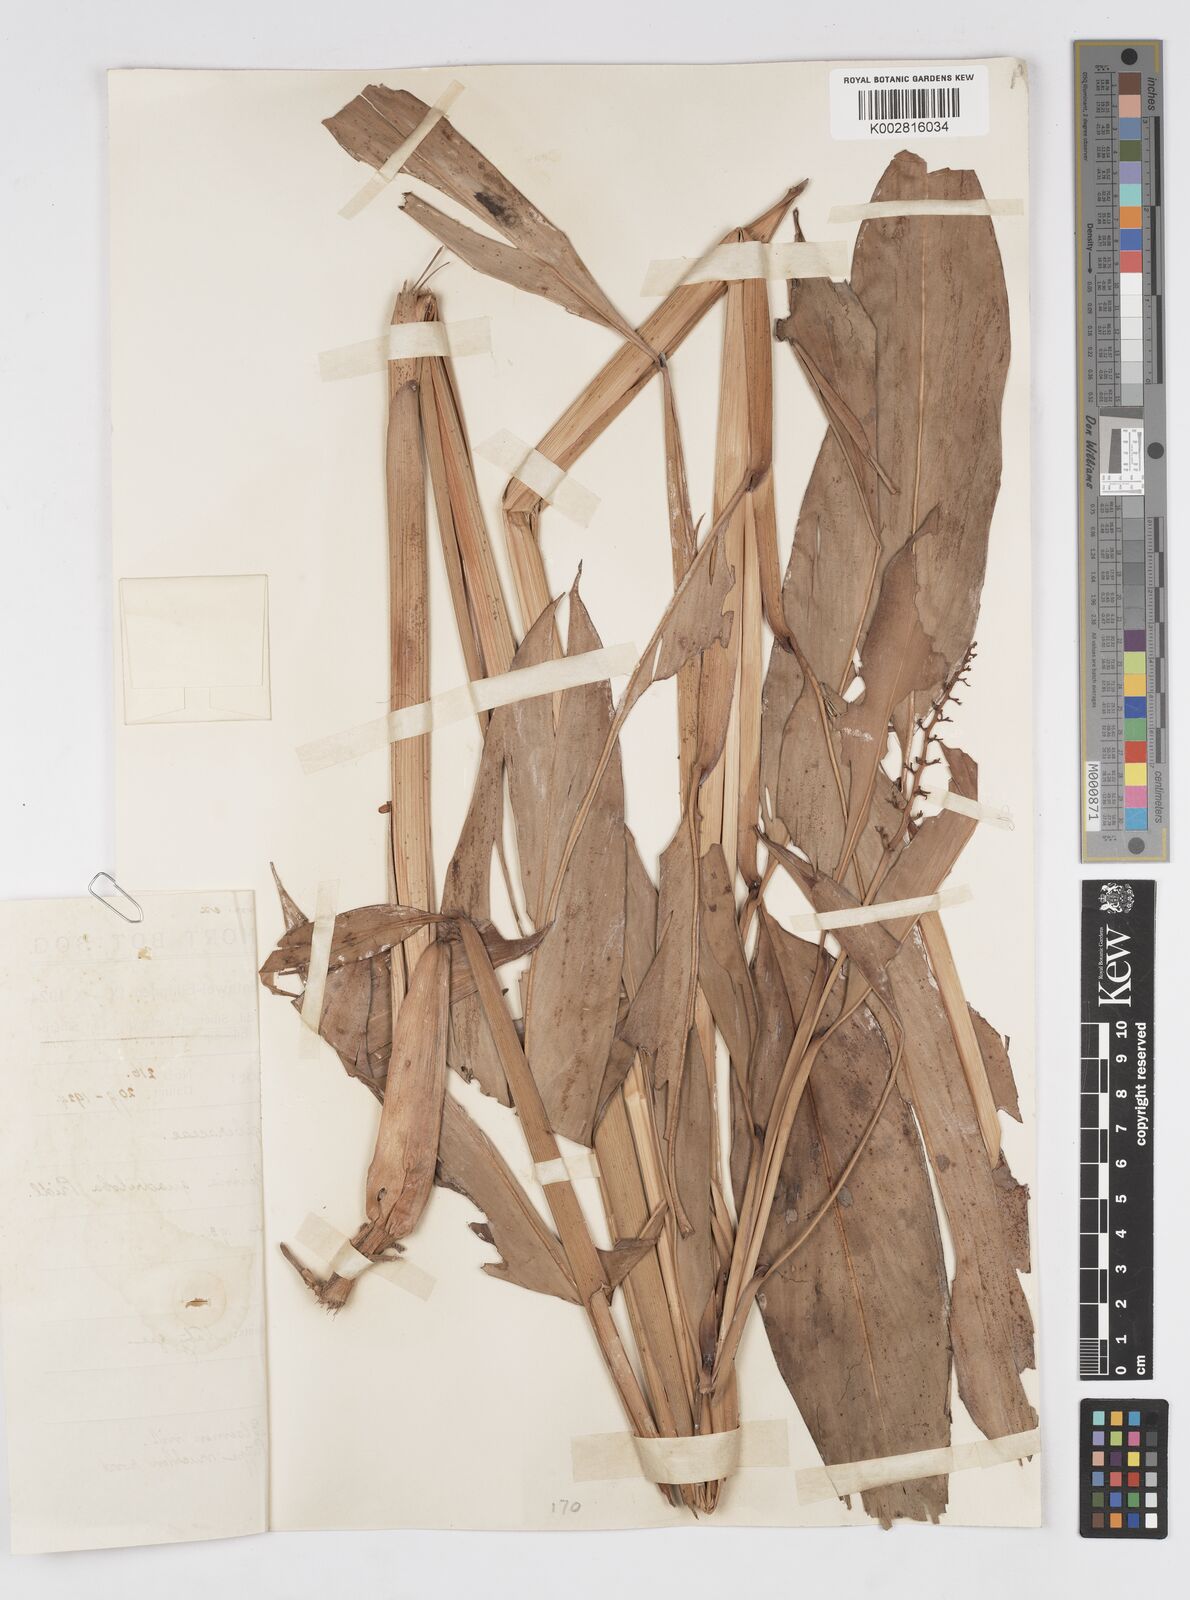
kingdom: Plantae
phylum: Tracheophyta
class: Liliopsida
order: Zingiberales
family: Zingiberaceae
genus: Alpinia
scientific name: Alpinia aquatica
